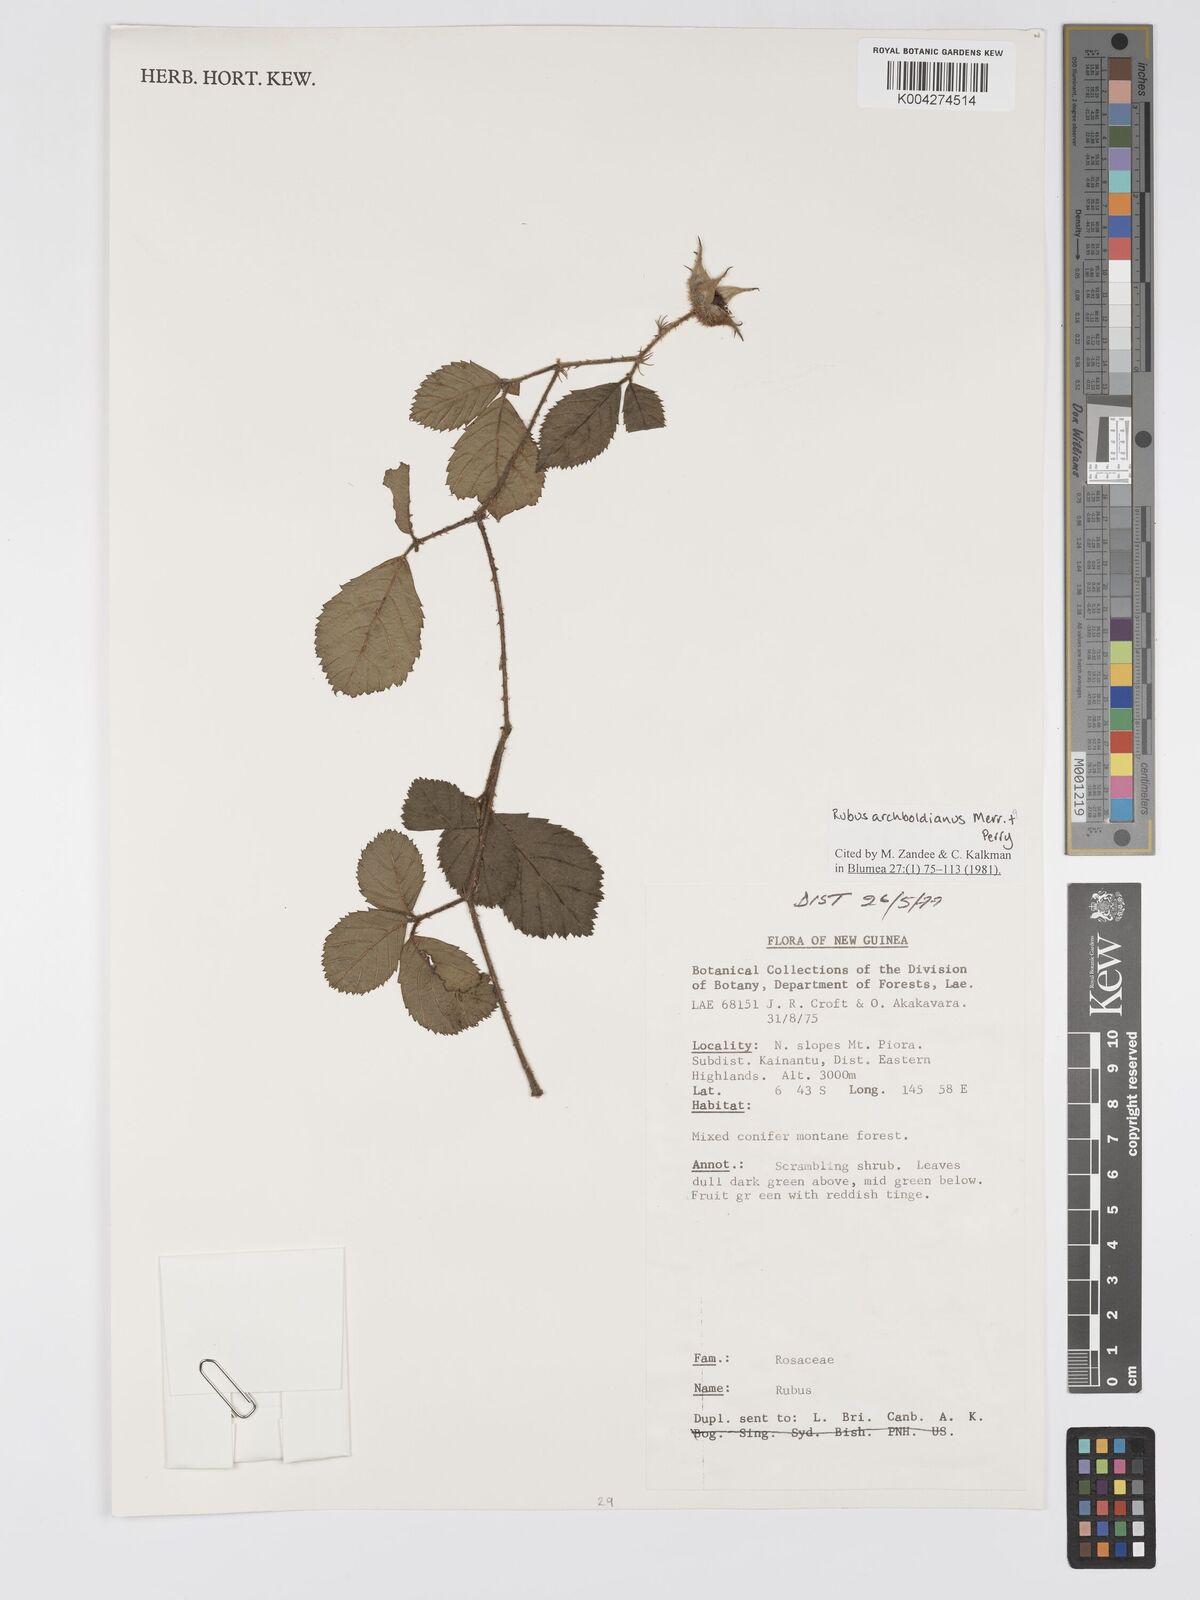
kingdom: Plantae
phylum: Tracheophyta
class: Magnoliopsida
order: Rosales
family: Rosaceae
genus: Rubus
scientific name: Rubus archboldianus
